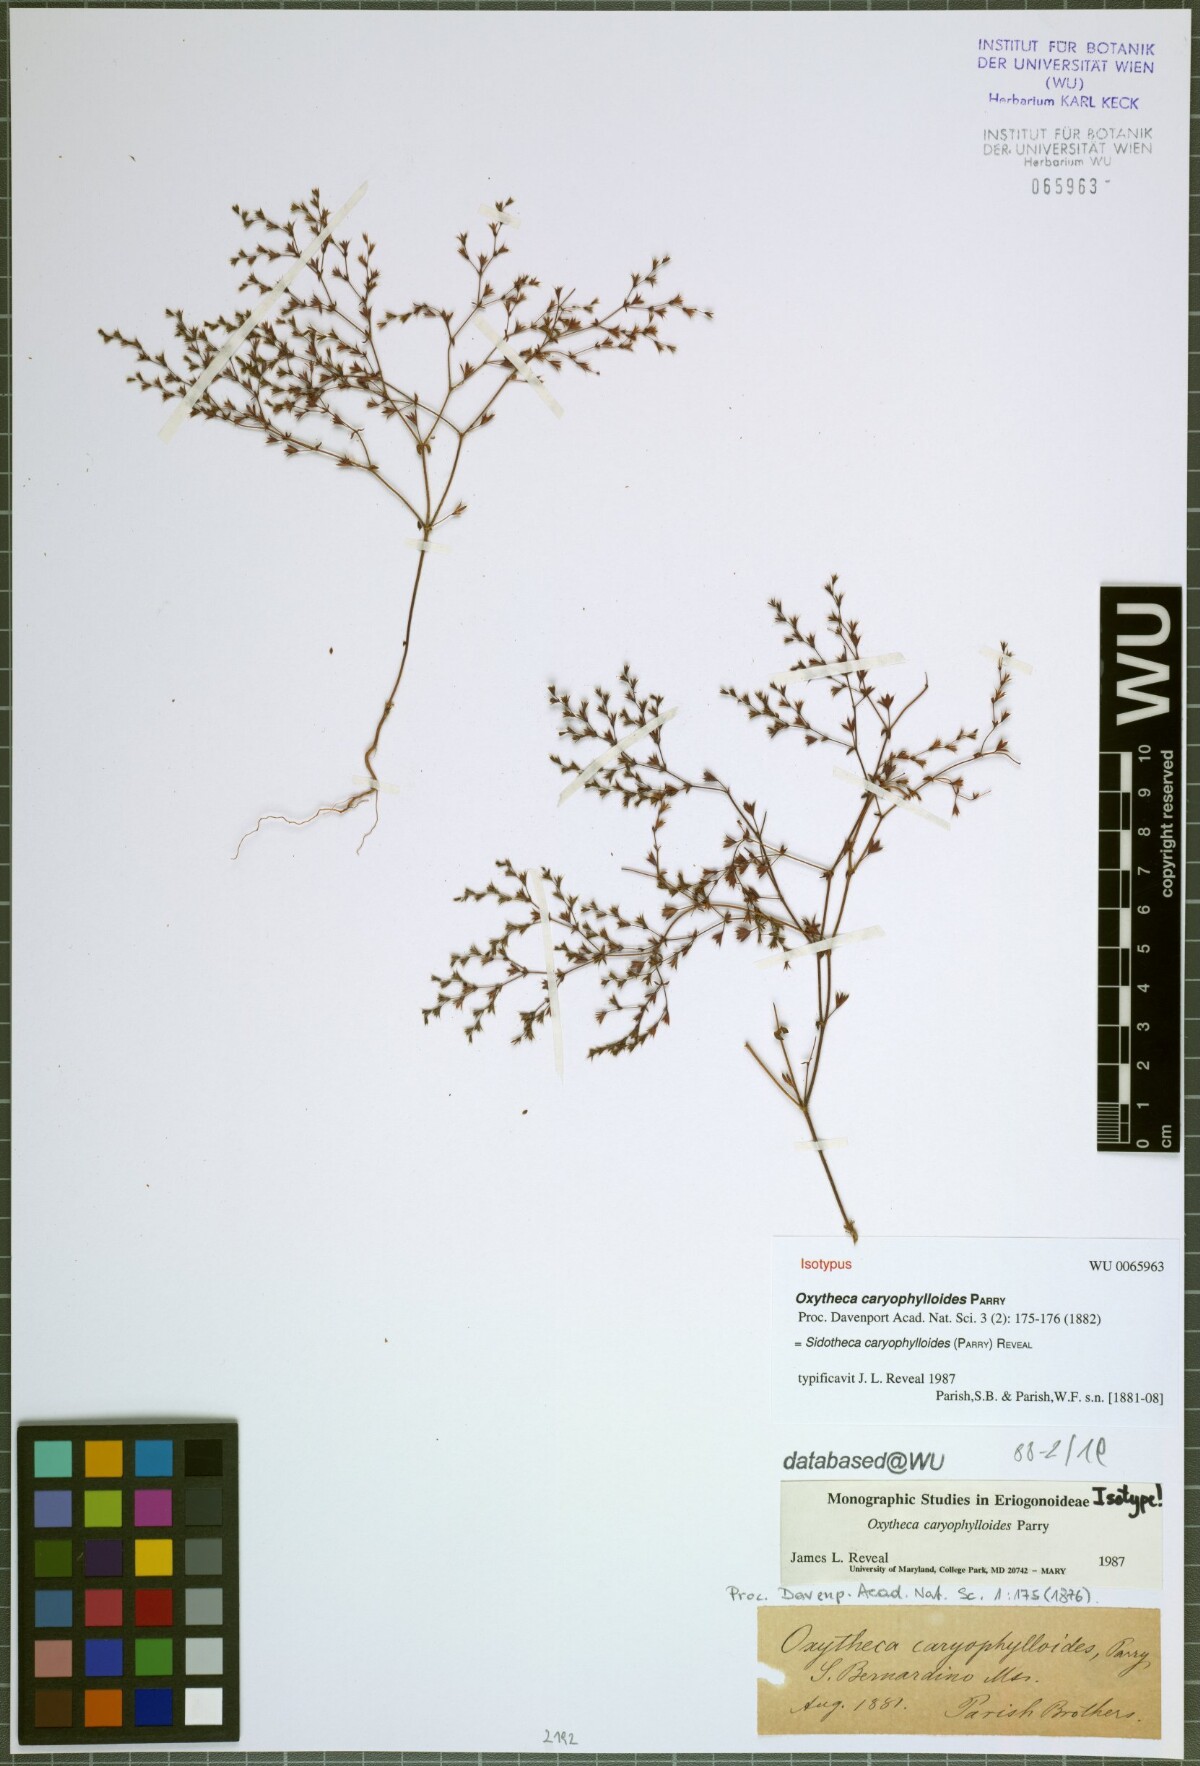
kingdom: Plantae
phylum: Tracheophyta
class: Magnoliopsida
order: Caryophyllales
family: Polygonaceae
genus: Sidotheca
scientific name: Sidotheca caryophylloides
